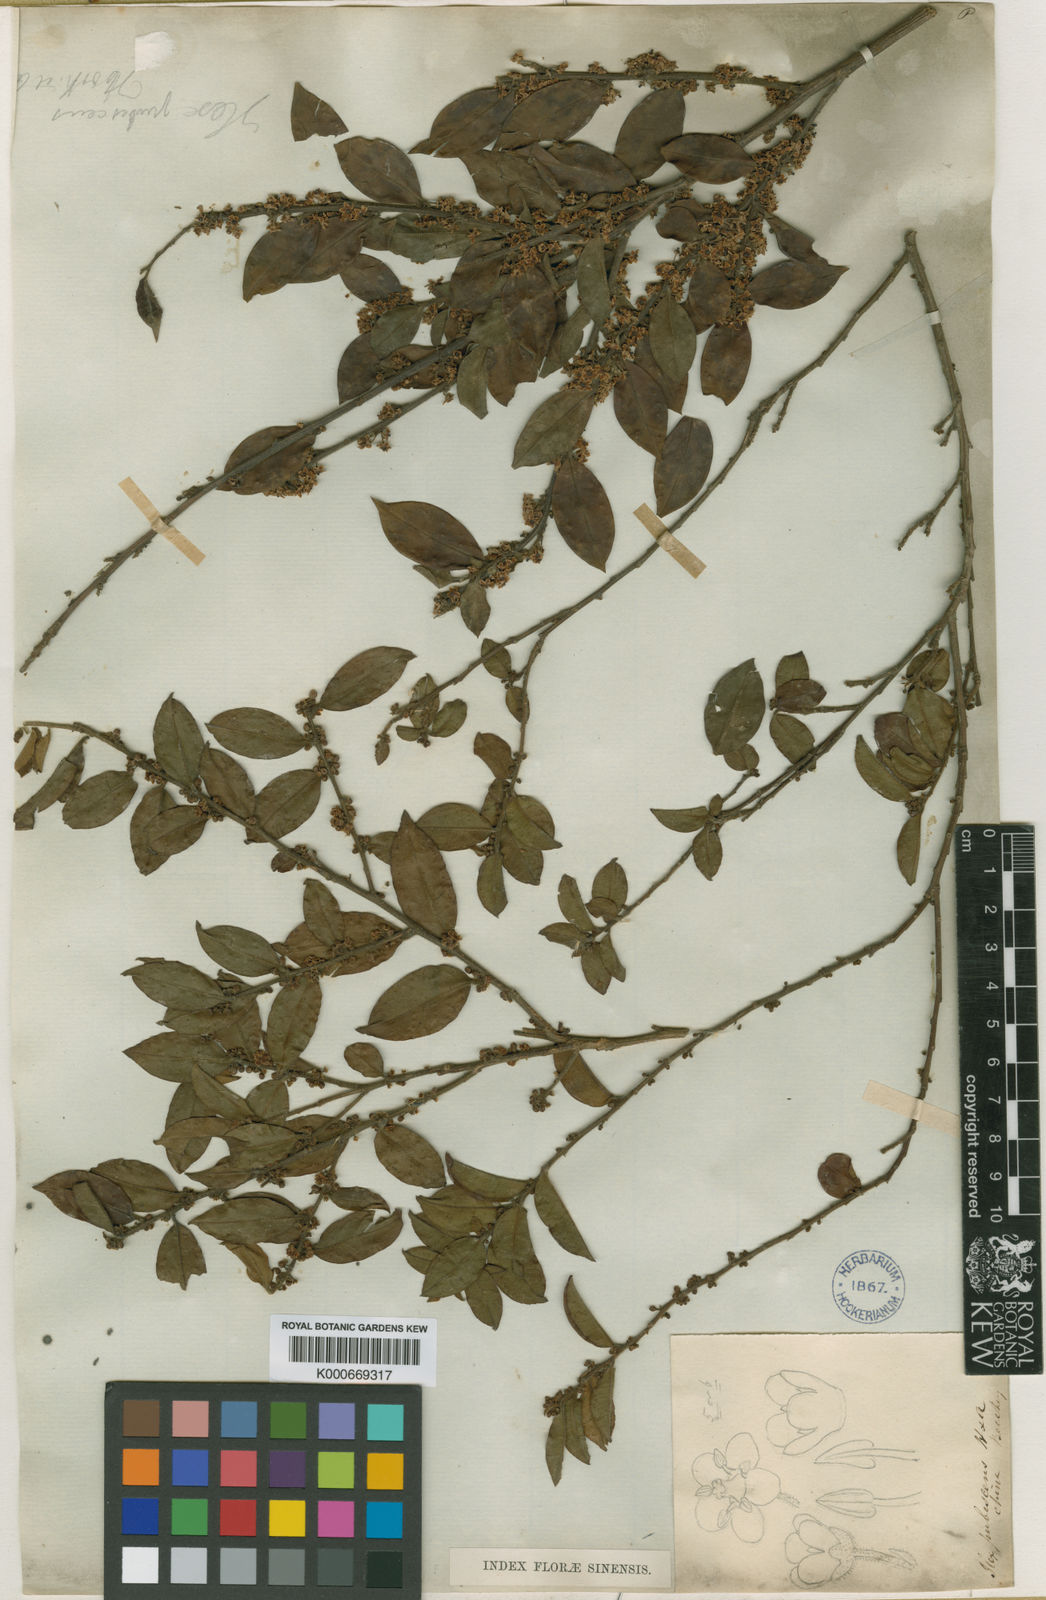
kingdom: Plantae
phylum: Tracheophyta
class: Magnoliopsida
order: Aquifoliales
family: Aquifoliaceae
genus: Ilex
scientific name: Ilex pubescens
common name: Pubescent holly
